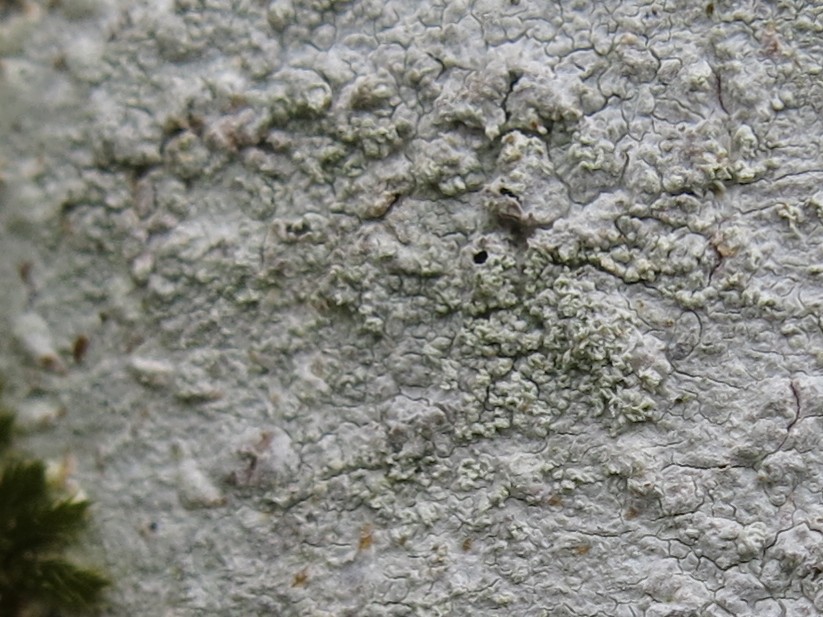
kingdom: Fungi
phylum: Ascomycota
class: Lecanoromycetes
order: Ostropales
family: Phlyctidaceae
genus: Phlyctis
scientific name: Phlyctis argena
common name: almindelig sølvlav
